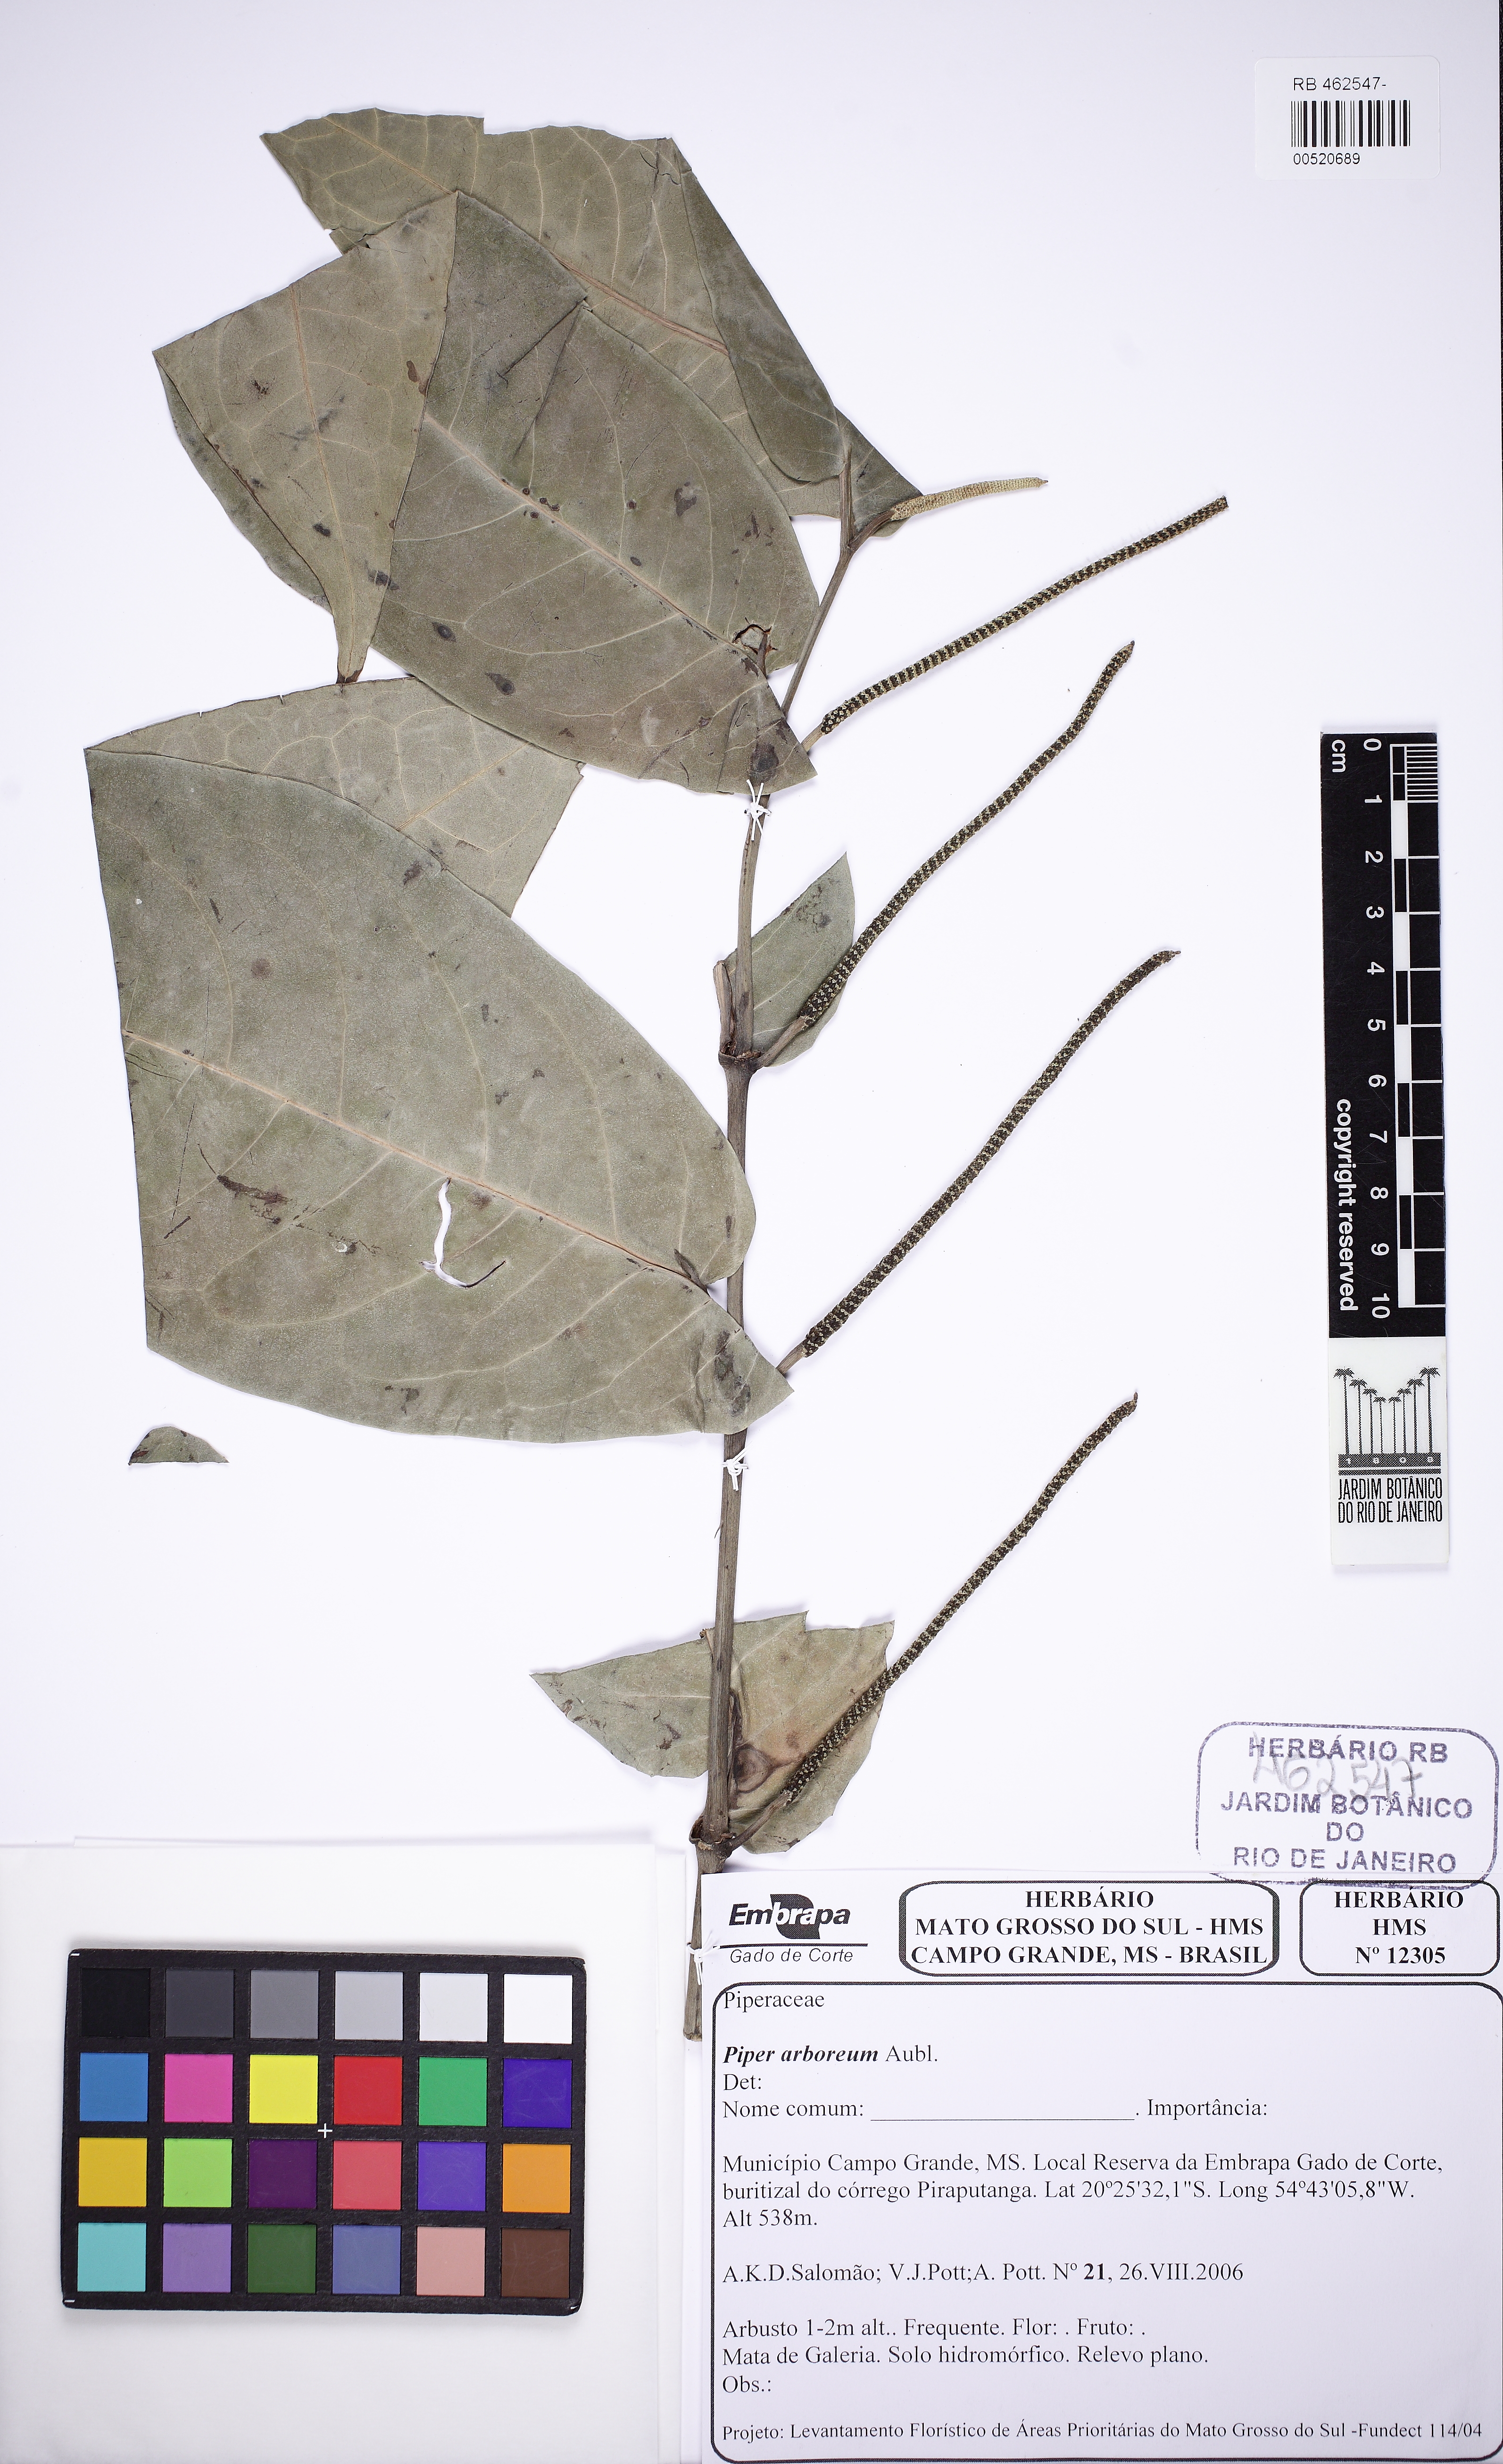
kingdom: Plantae
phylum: Tracheophyta
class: Magnoliopsida
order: Piperales
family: Piperaceae
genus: Piper
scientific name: Piper arboreum
